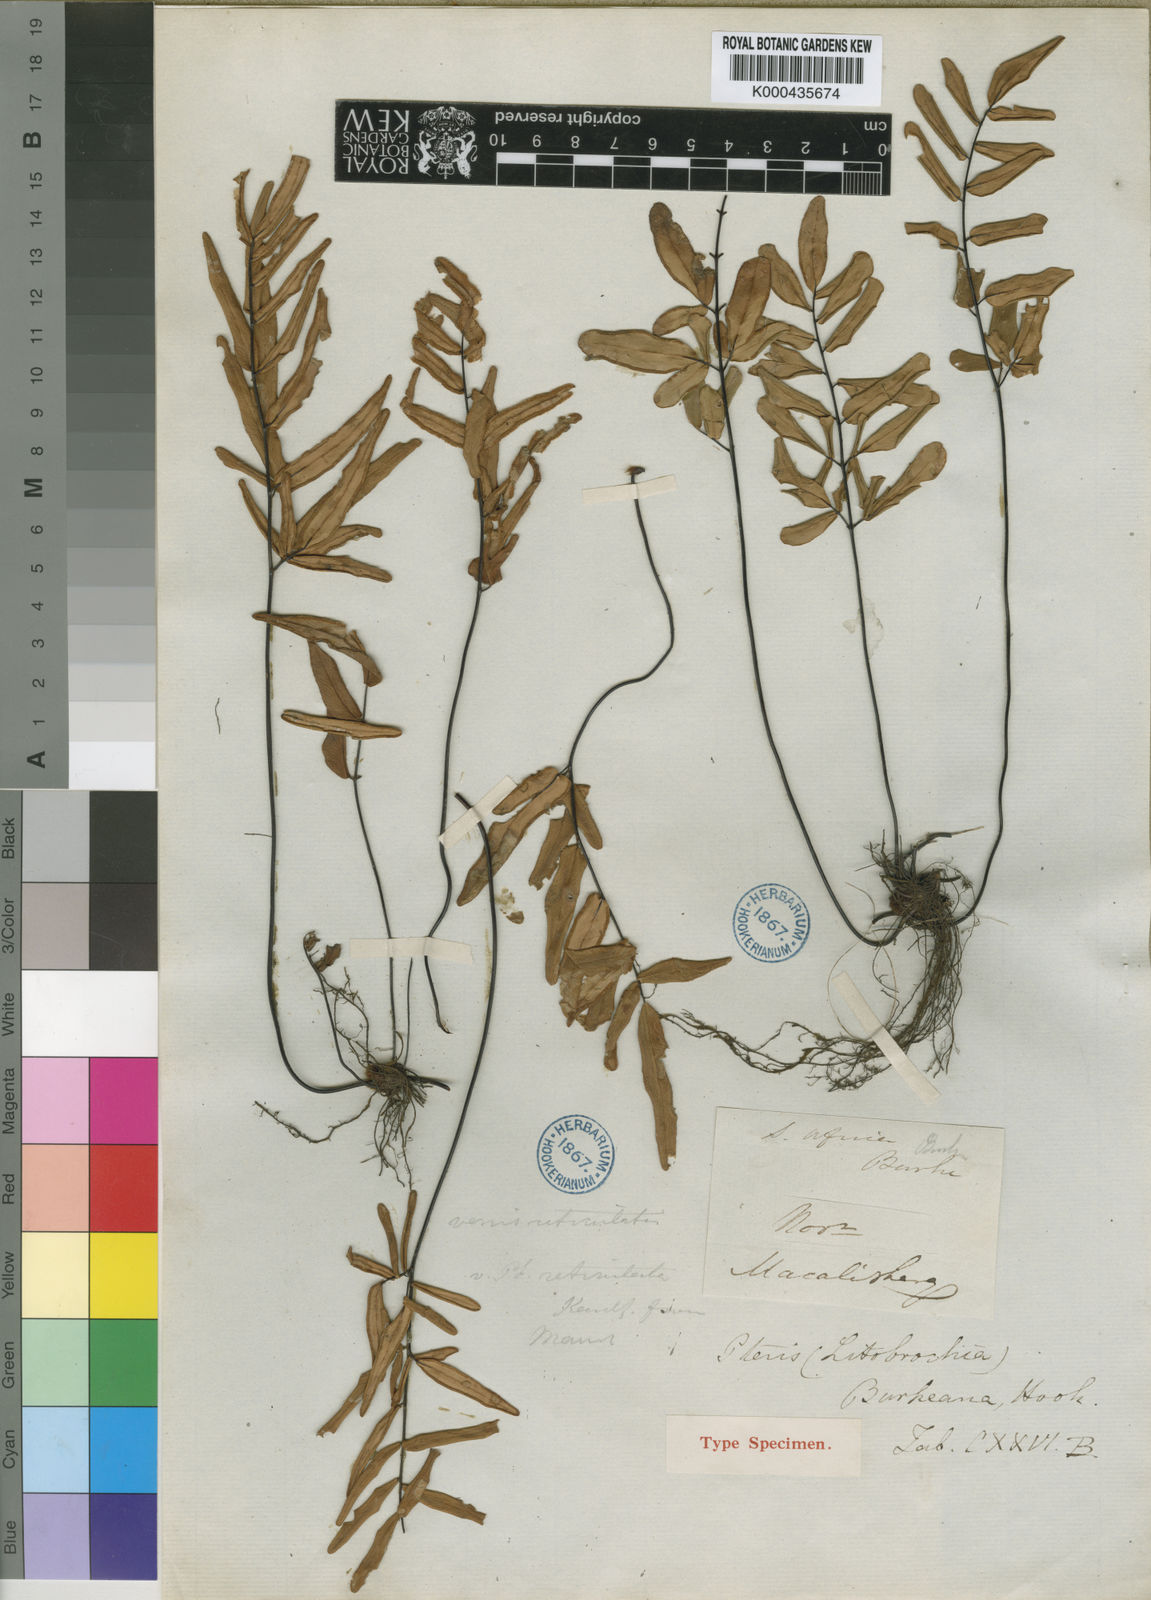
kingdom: Plantae
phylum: Tracheophyta
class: Polypodiopsida
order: Polypodiales
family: Pteridaceae
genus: Pellaea
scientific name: Pellaea pectiniformis
